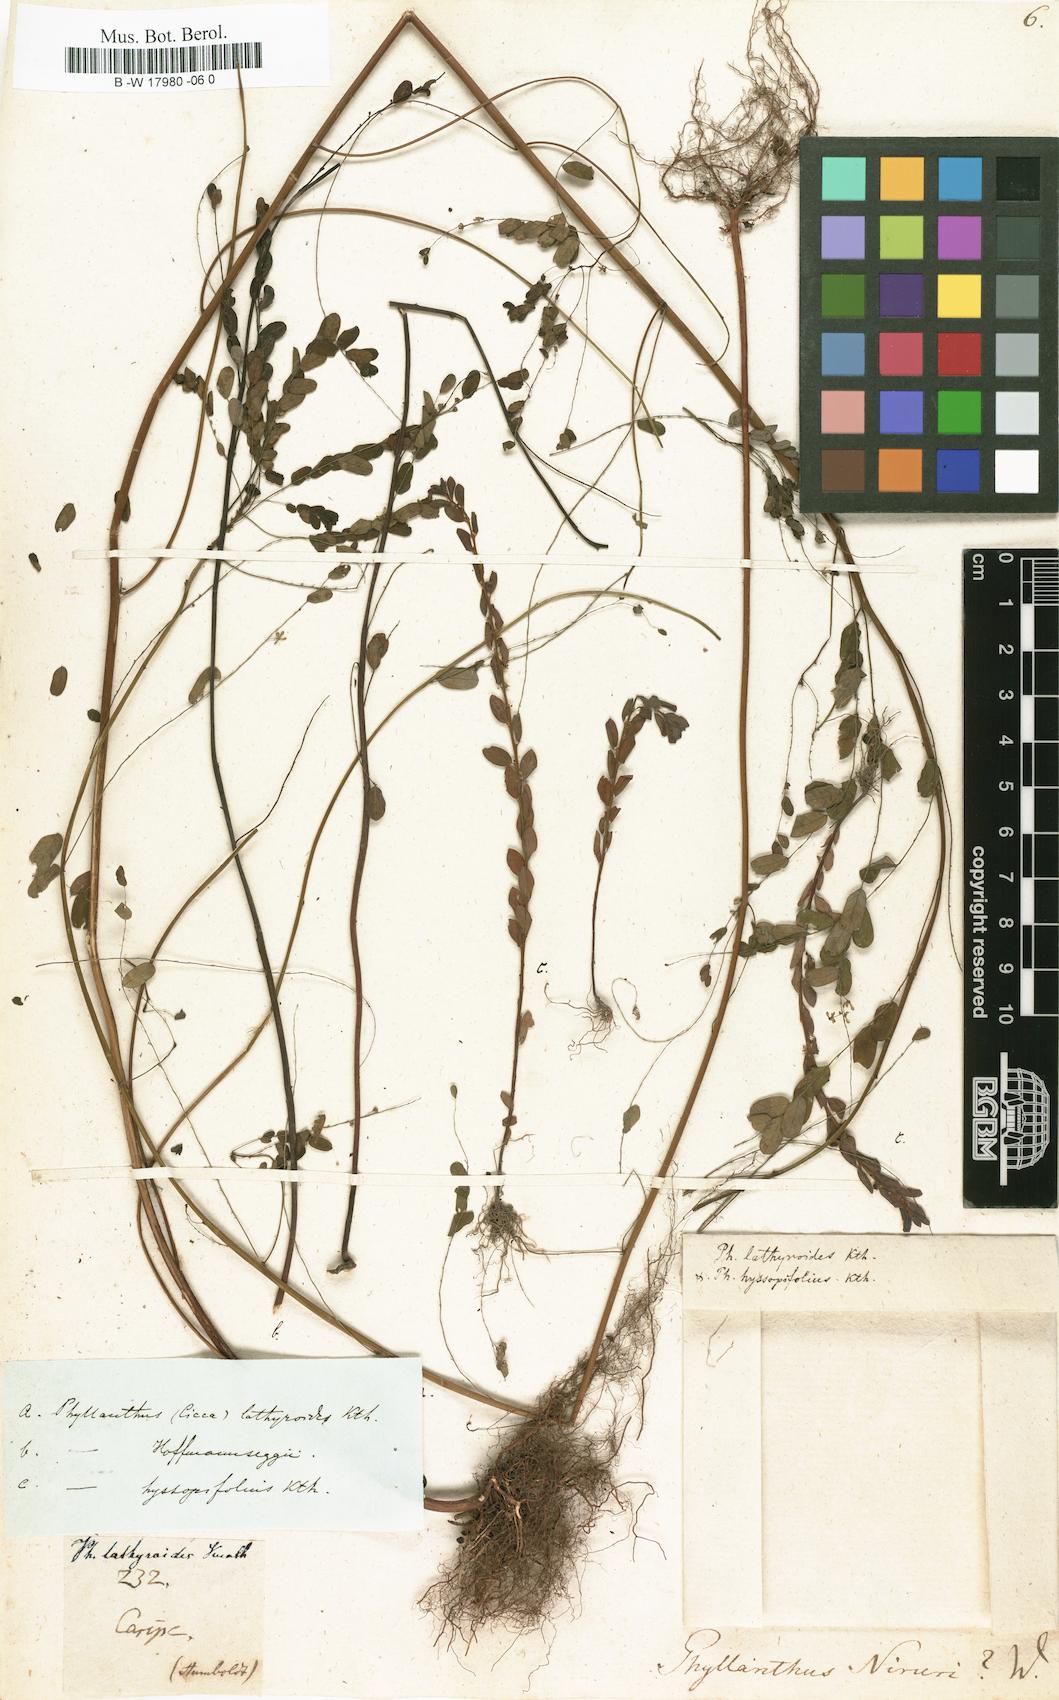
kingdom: Plantae
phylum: Tracheophyta
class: Magnoliopsida
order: Malpighiales
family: Phyllanthaceae
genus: Phyllanthus
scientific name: Phyllanthus niruri
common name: Niruri
